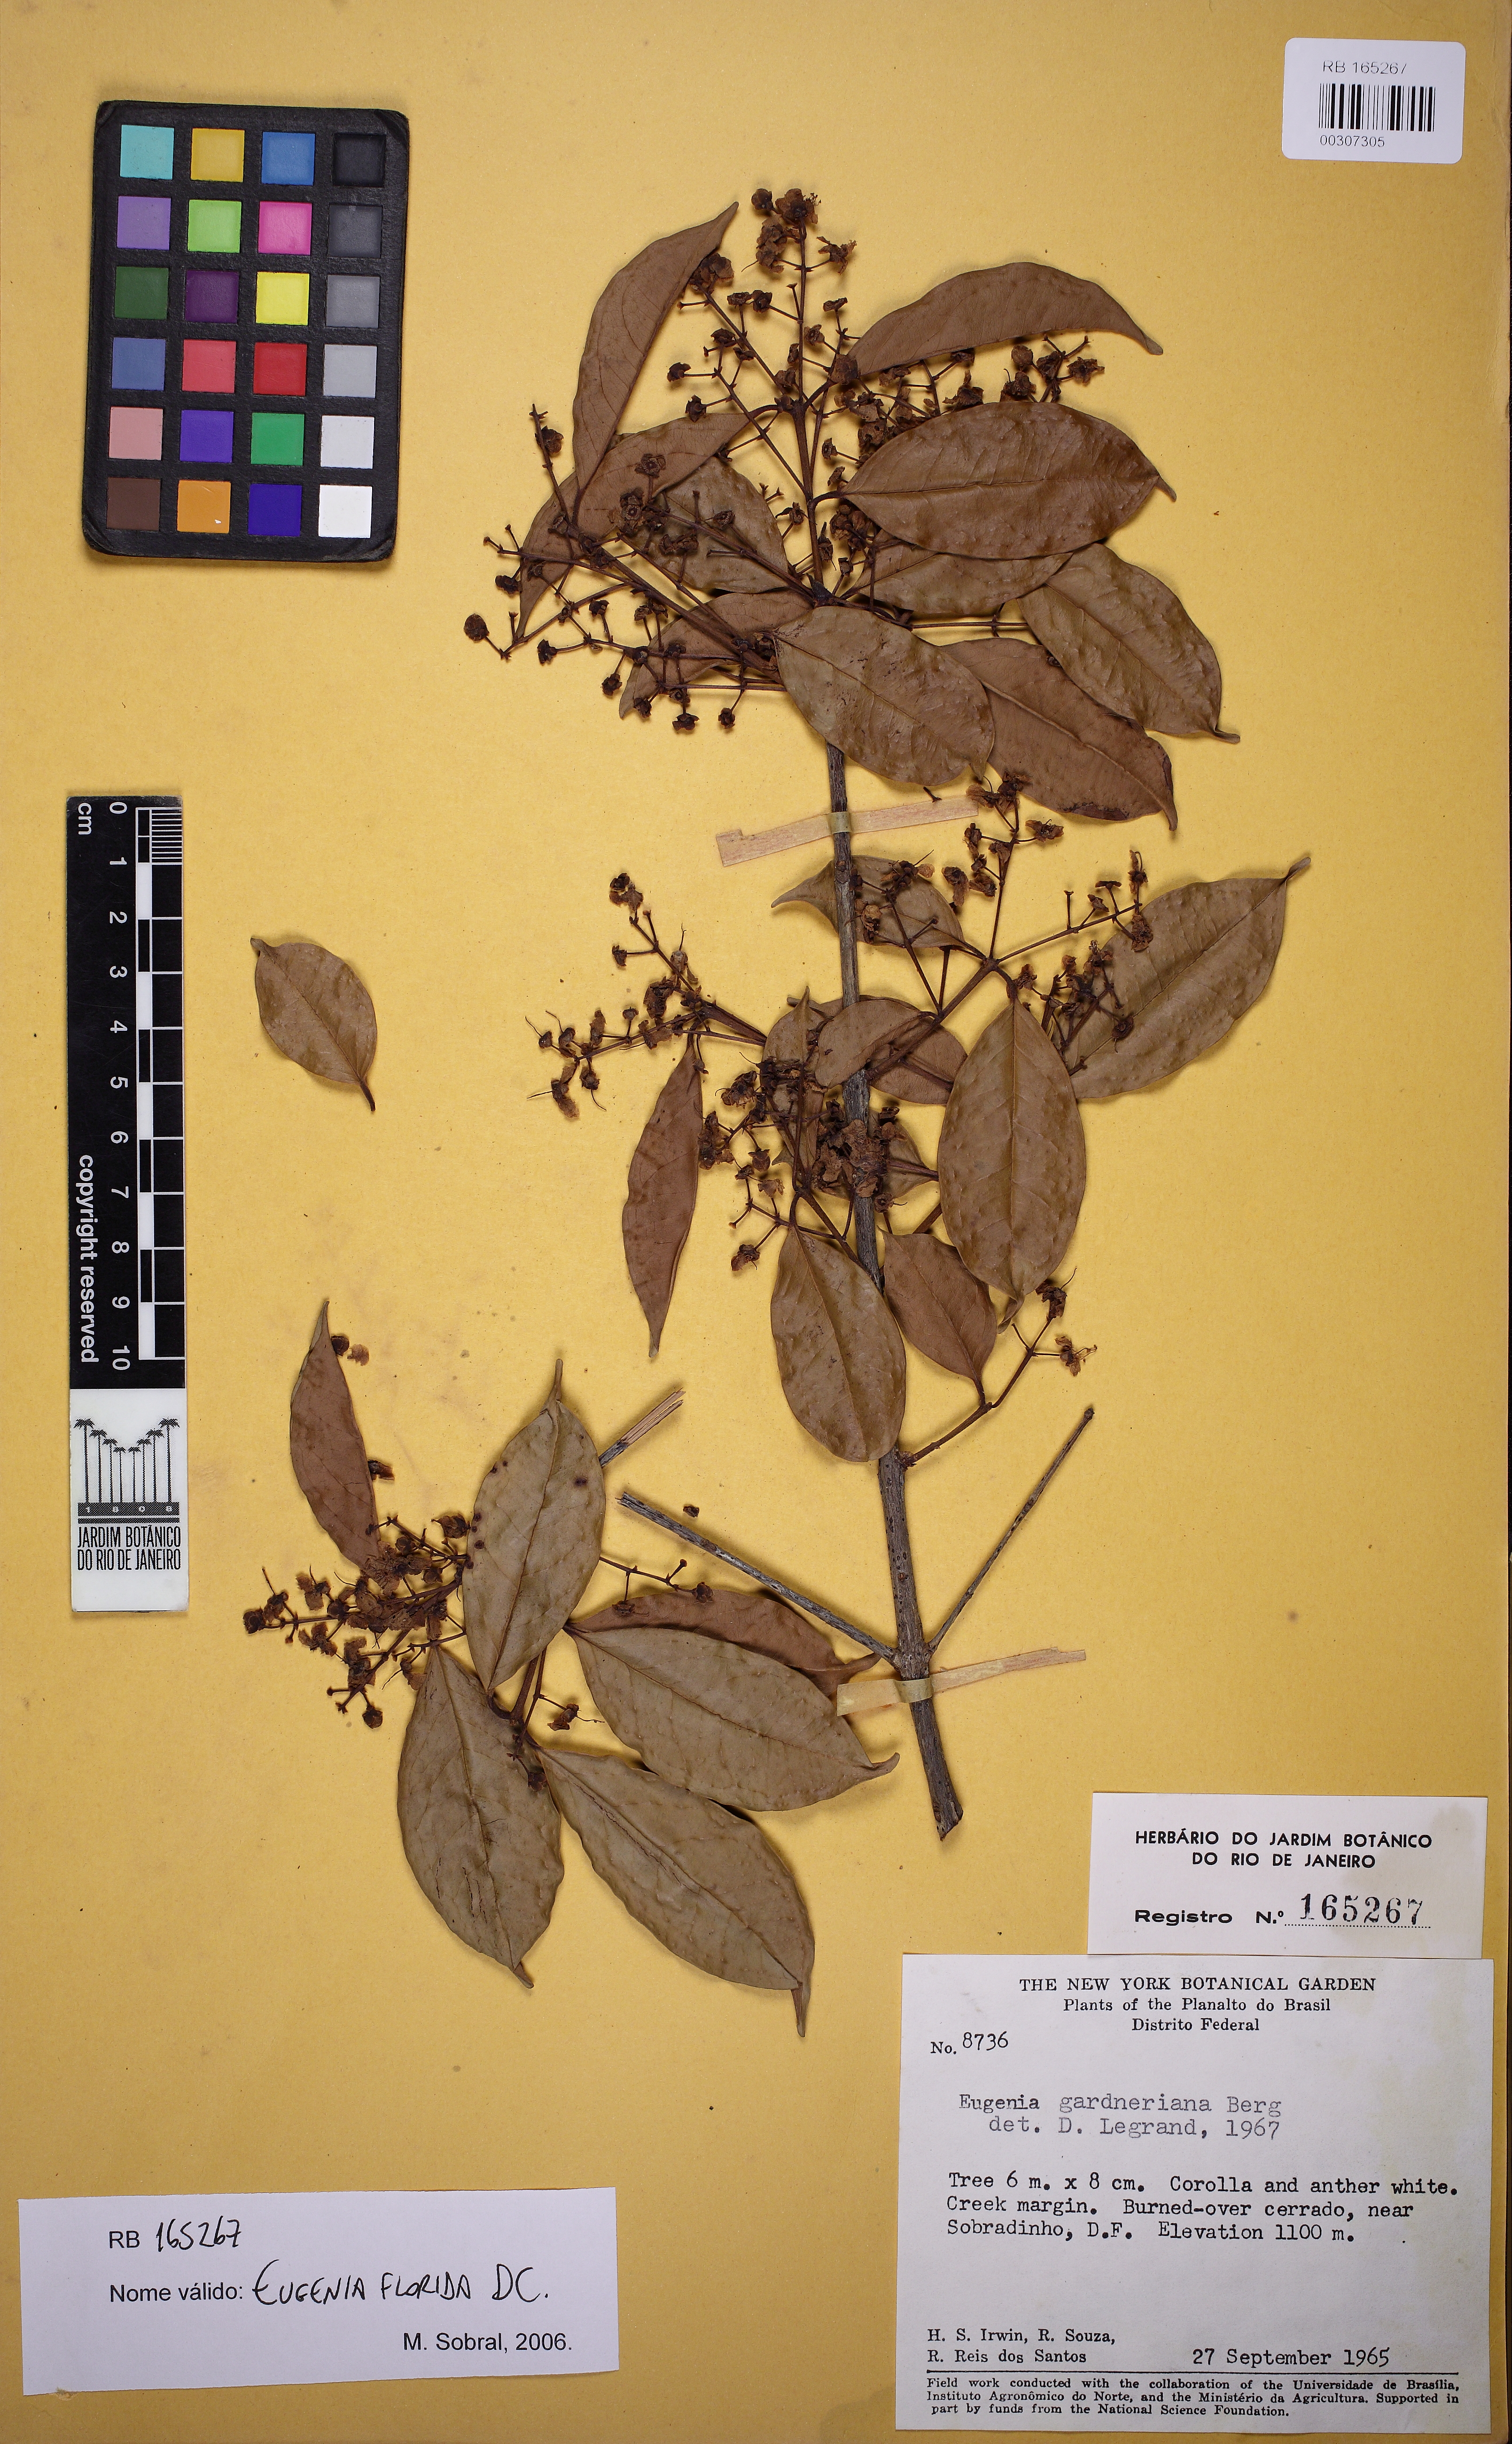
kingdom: Plantae
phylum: Tracheophyta
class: Magnoliopsida
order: Myrtales
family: Myrtaceae
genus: Eugenia
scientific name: Eugenia florida
